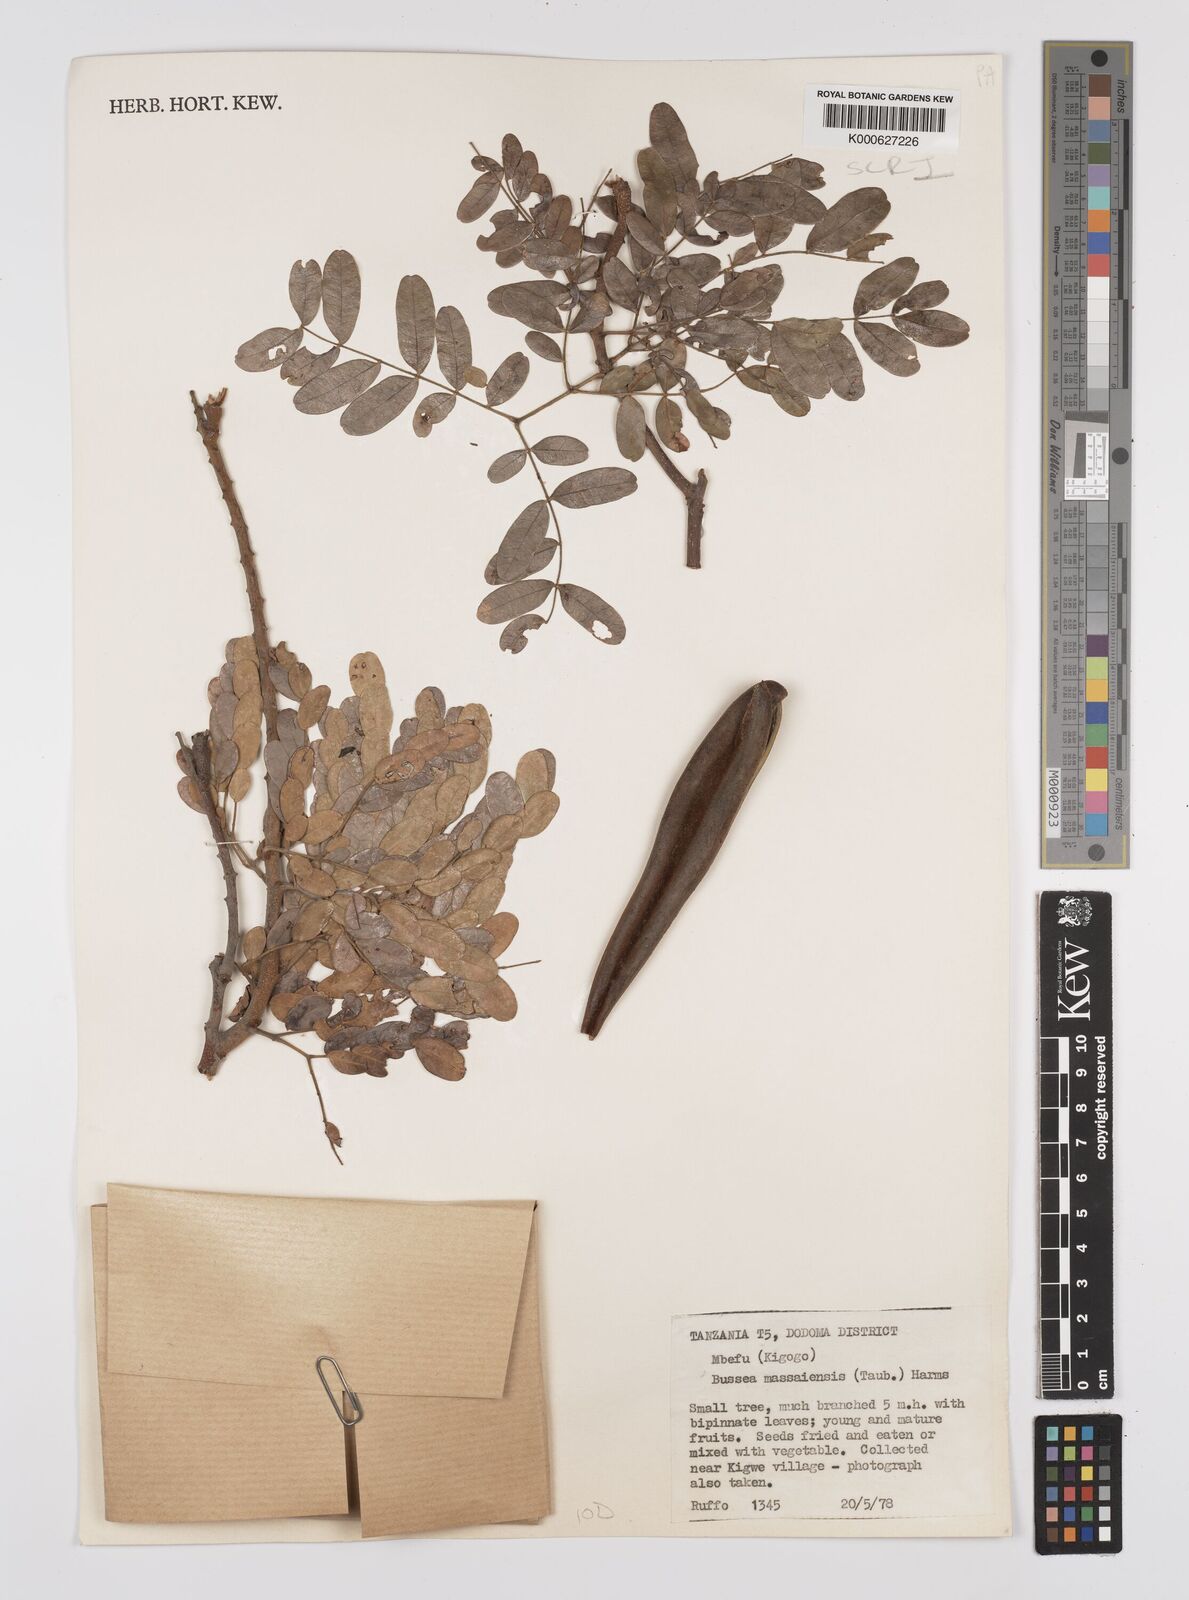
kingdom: Plantae
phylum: Tracheophyta
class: Magnoliopsida
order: Fabales
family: Fabaceae
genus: Bussea
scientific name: Bussea massaiensis
